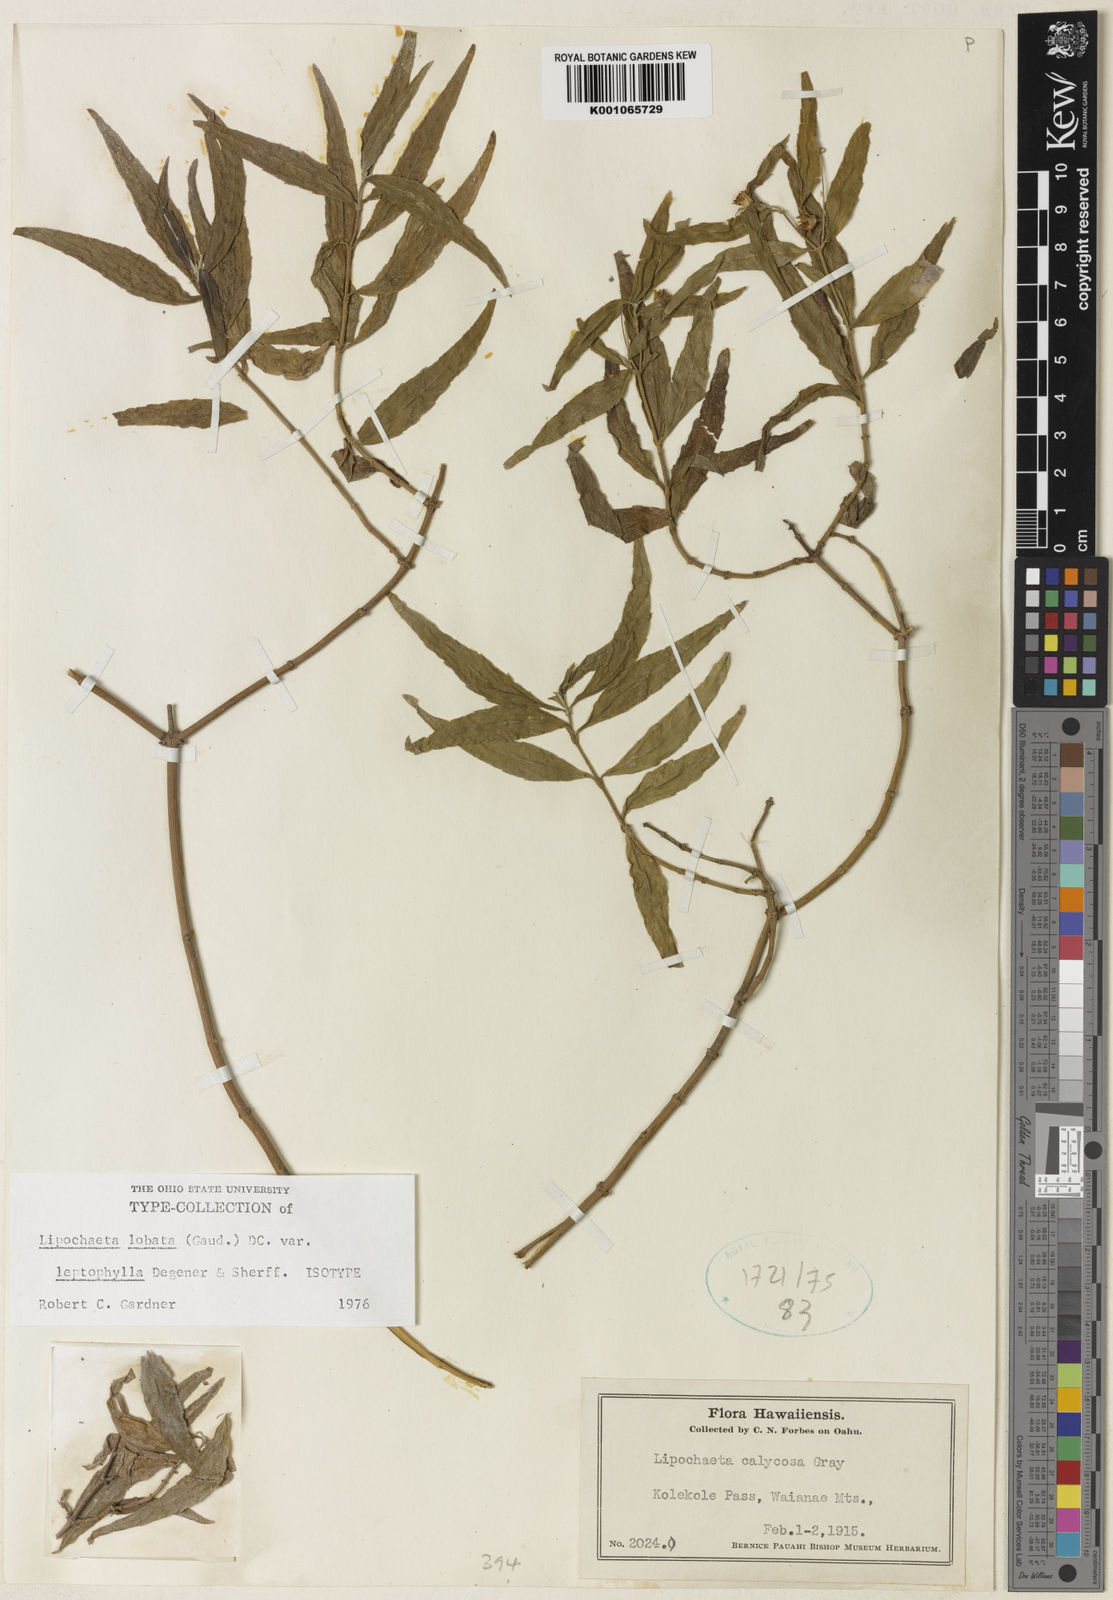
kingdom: Plantae
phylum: Tracheophyta
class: Magnoliopsida
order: Asterales
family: Asteraceae
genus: Lipochaeta
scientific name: Lipochaeta lobata
